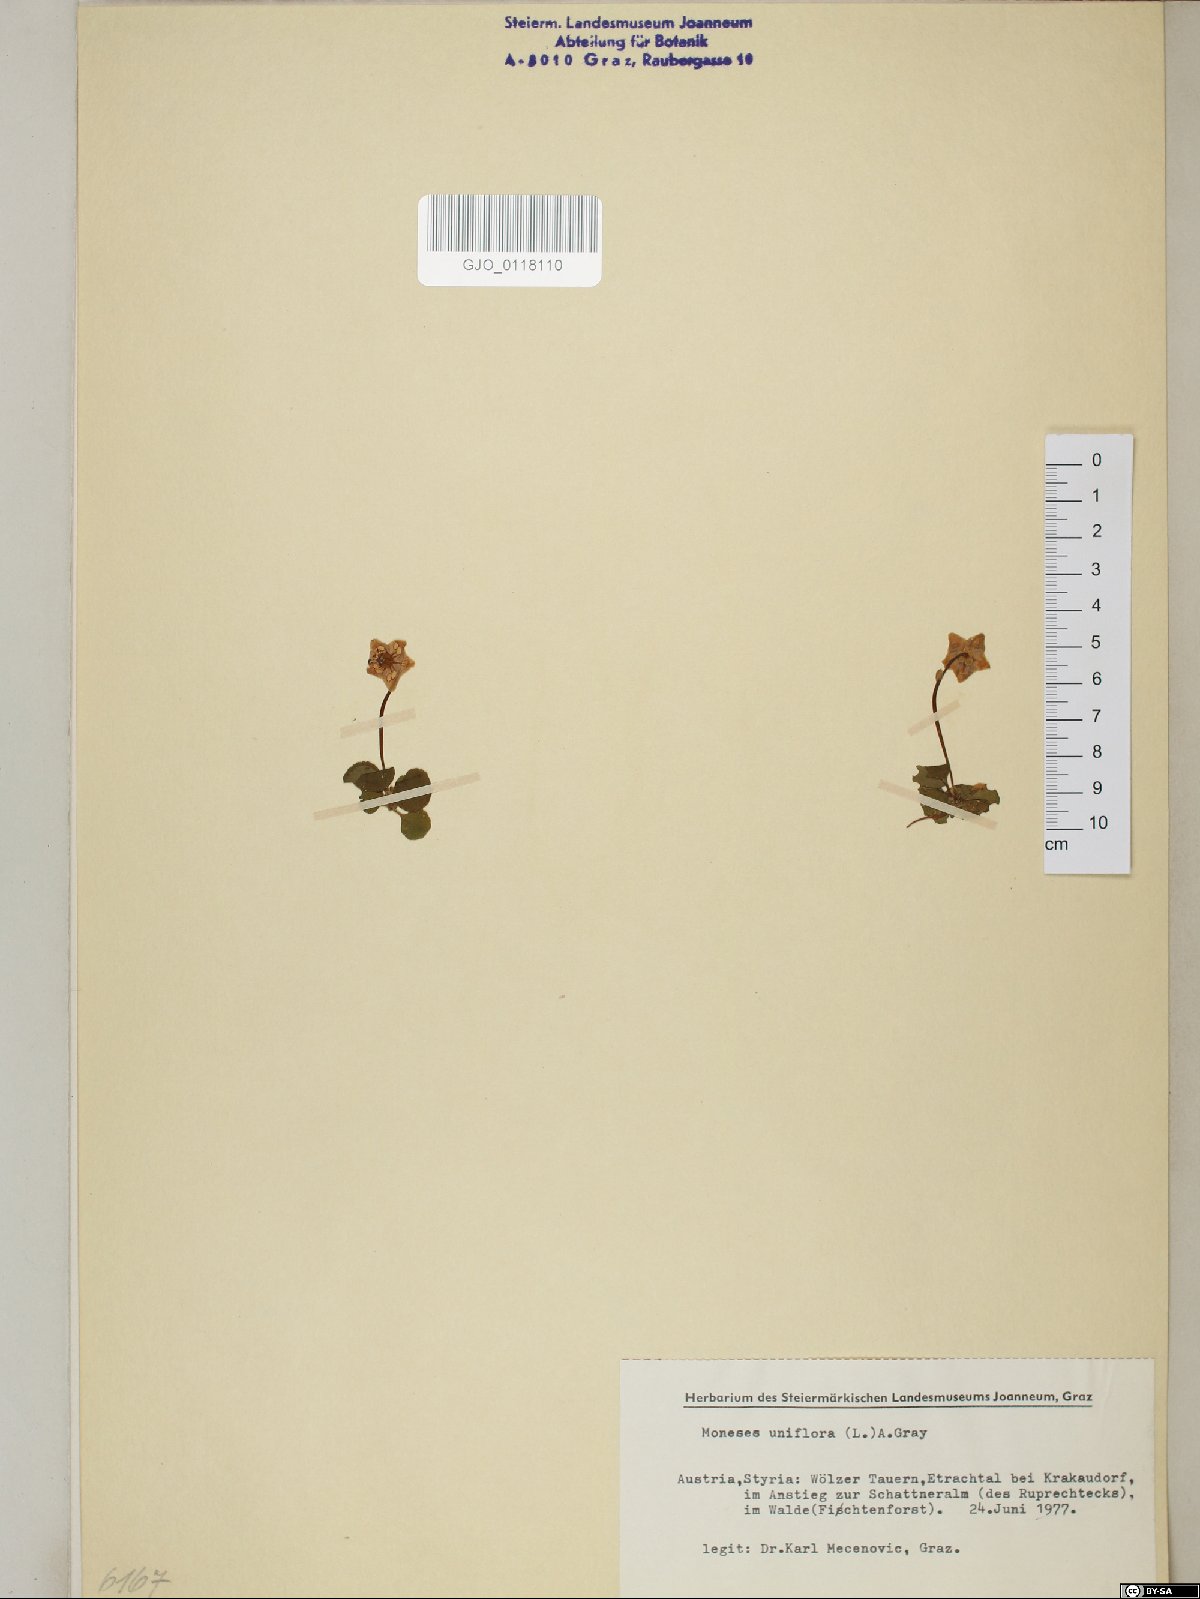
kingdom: Plantae
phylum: Tracheophyta
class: Magnoliopsida
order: Ericales
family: Ericaceae
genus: Moneses
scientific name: Moneses uniflora
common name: One-flowered wintergreen
